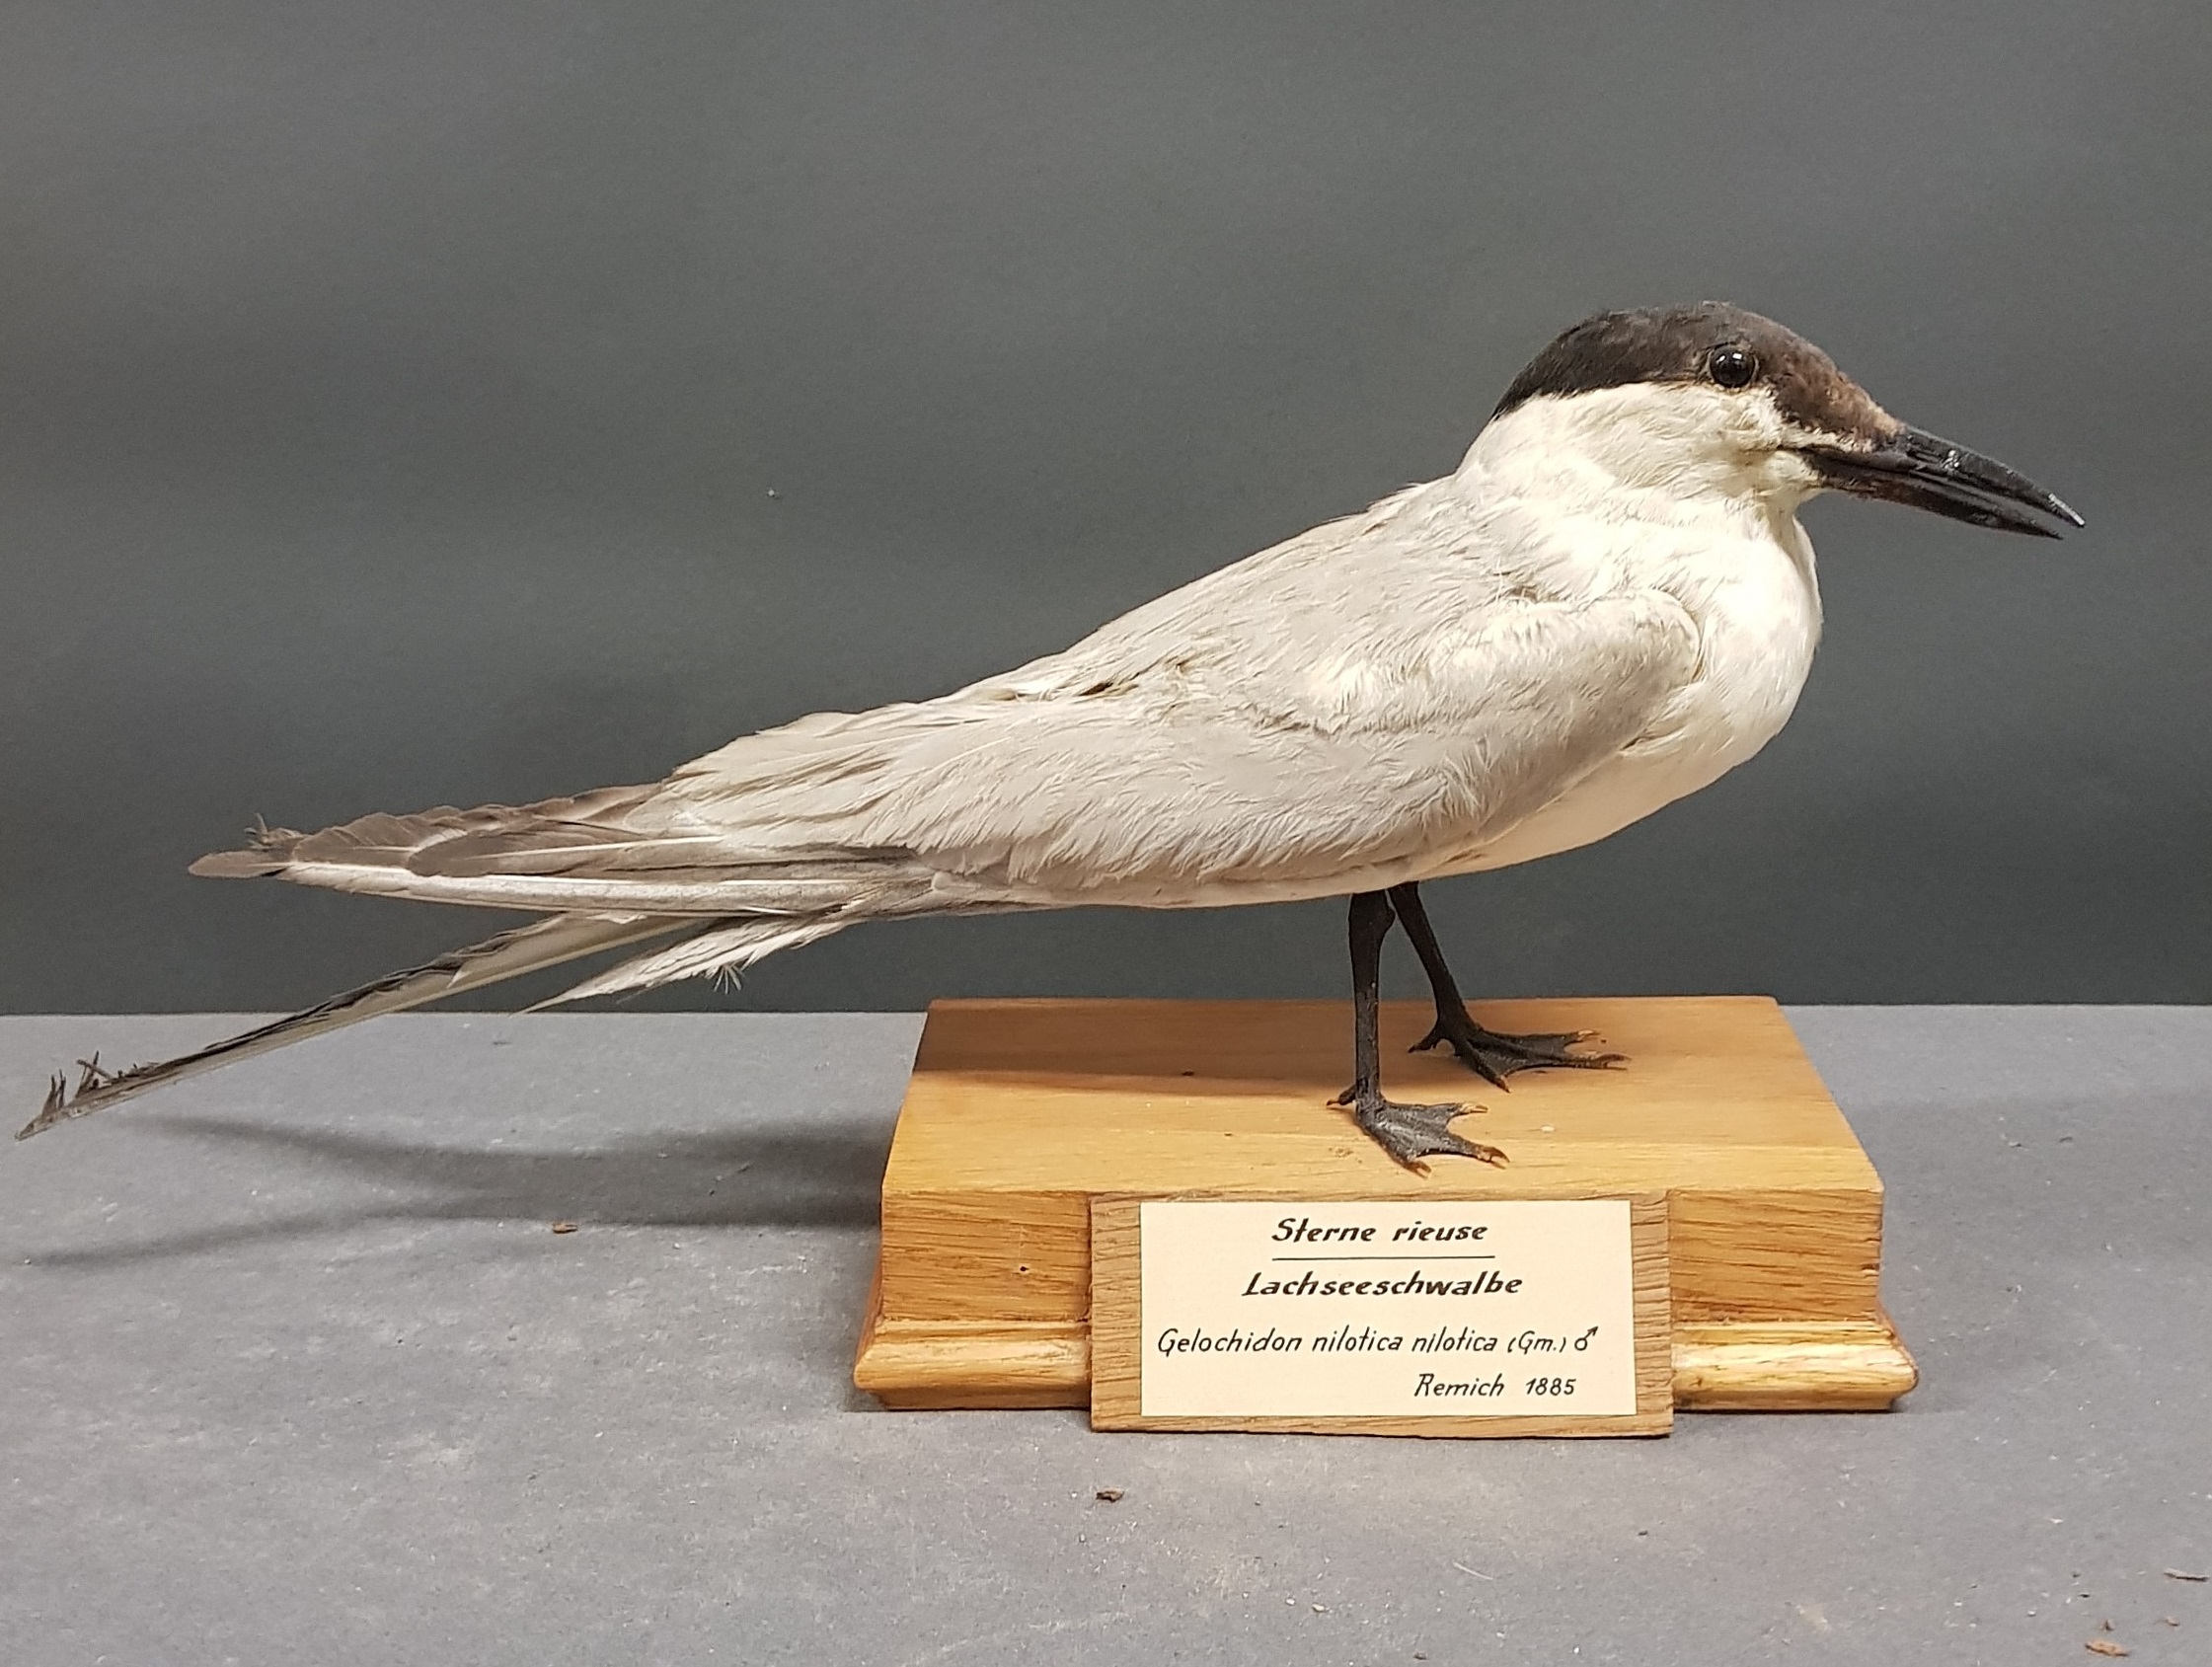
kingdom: Animalia
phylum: Chordata
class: Aves
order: Charadriiformes
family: Laridae
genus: Gelochelidon
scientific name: Gelochelidon nilotica
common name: Gull-billed tern
